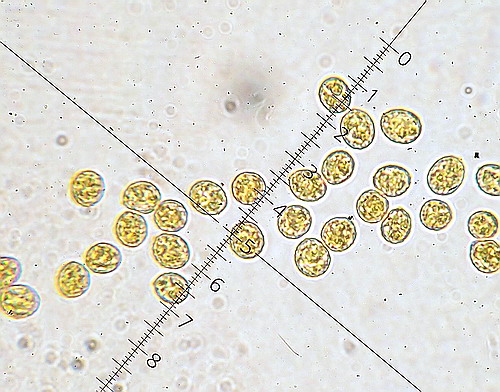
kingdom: Fungi
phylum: Basidiomycota
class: Agaricomycetes
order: Agaricales
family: Crepidotaceae
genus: Crepidotus
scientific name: Crepidotus cesatii
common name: almindelig muslingesvamp
